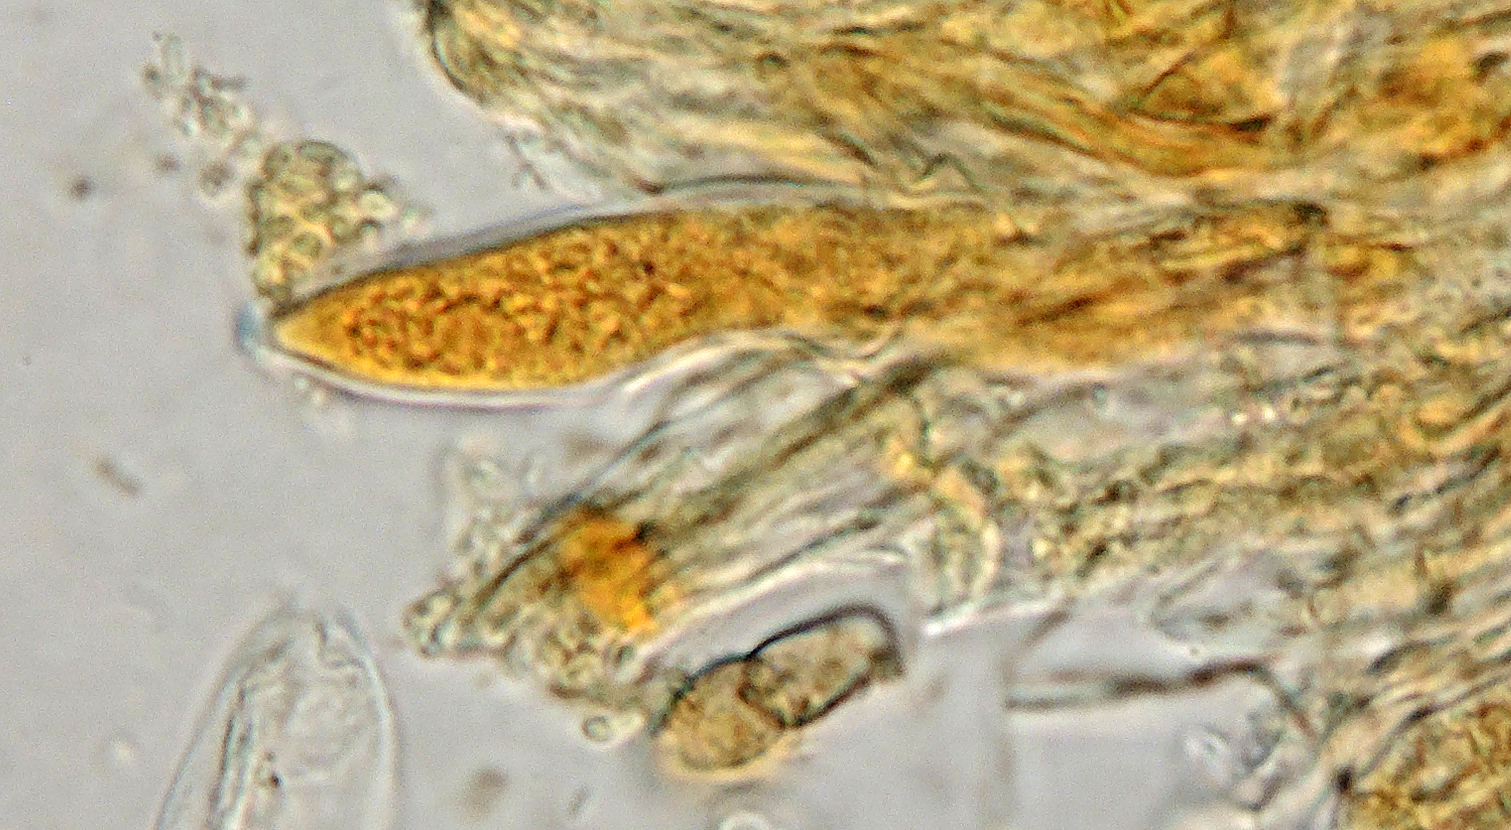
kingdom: Fungi
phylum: Ascomycota
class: Leotiomycetes
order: Helotiales
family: Helotiaceae
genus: Pseudohelotium
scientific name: Pseudohelotium sordidulum
